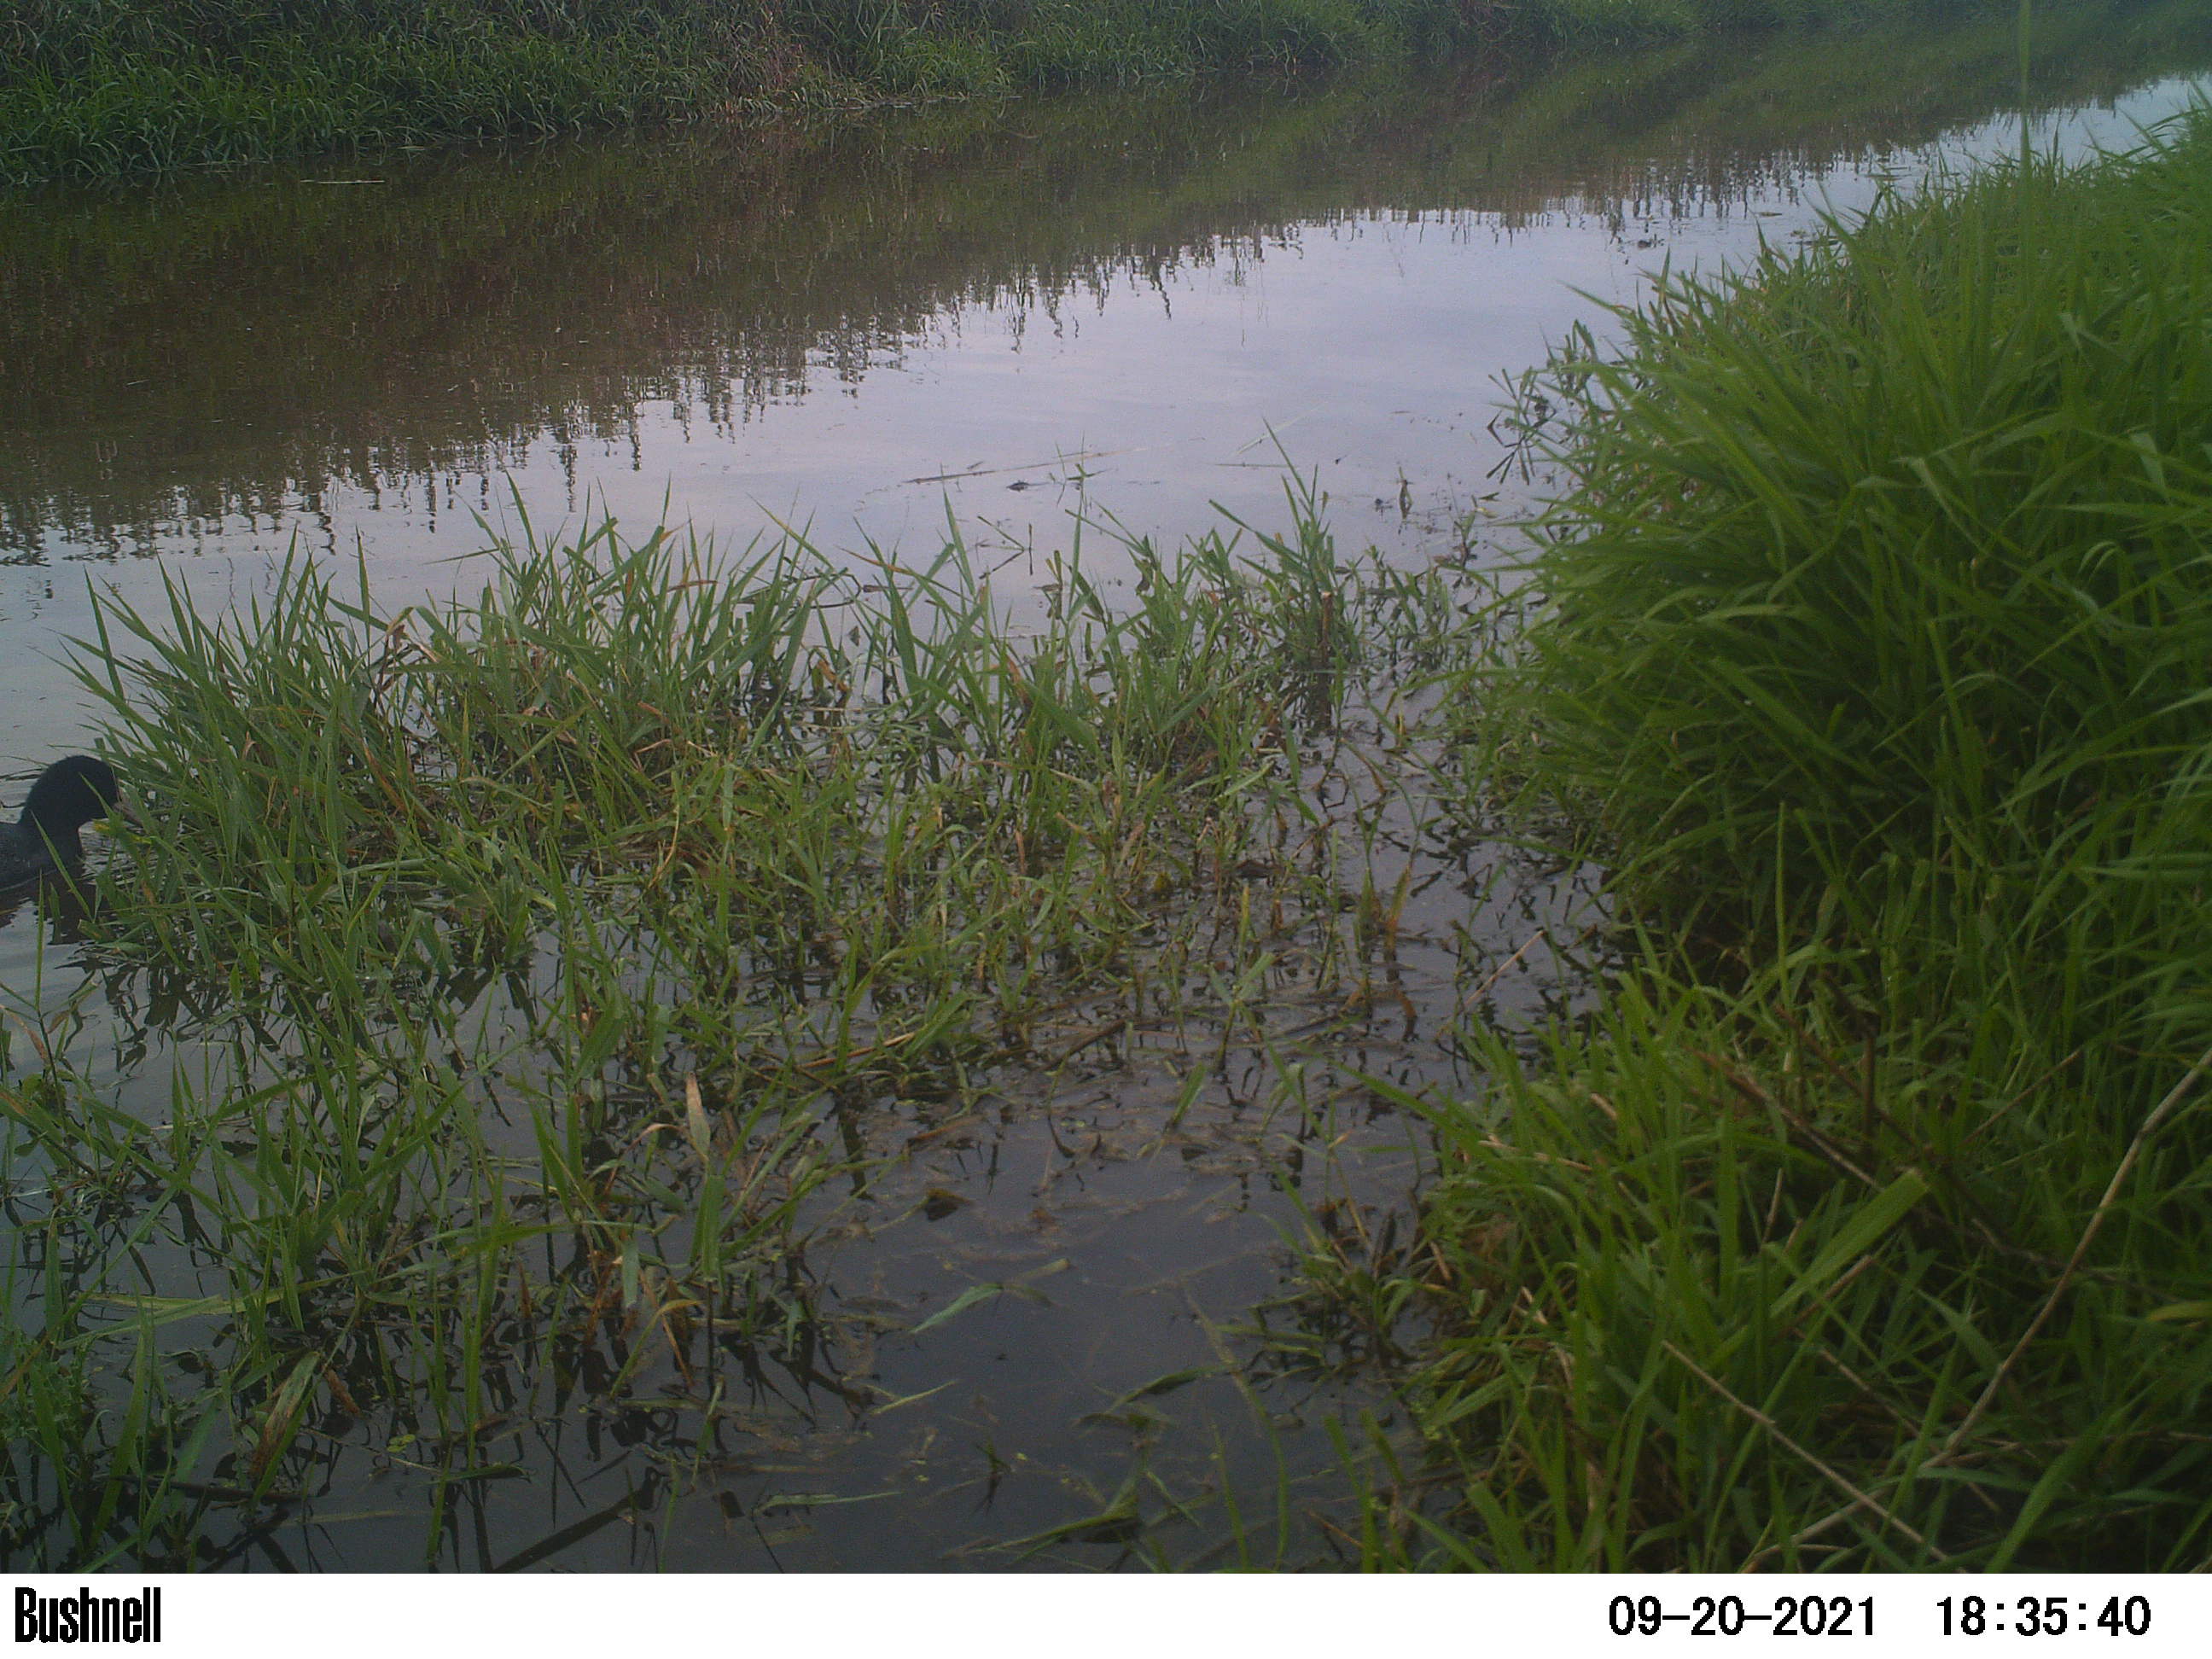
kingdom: Animalia
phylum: Chordata
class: Aves
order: Gruiformes
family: Rallidae
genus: Fulica
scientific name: Fulica atra
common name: Eurasian coot
